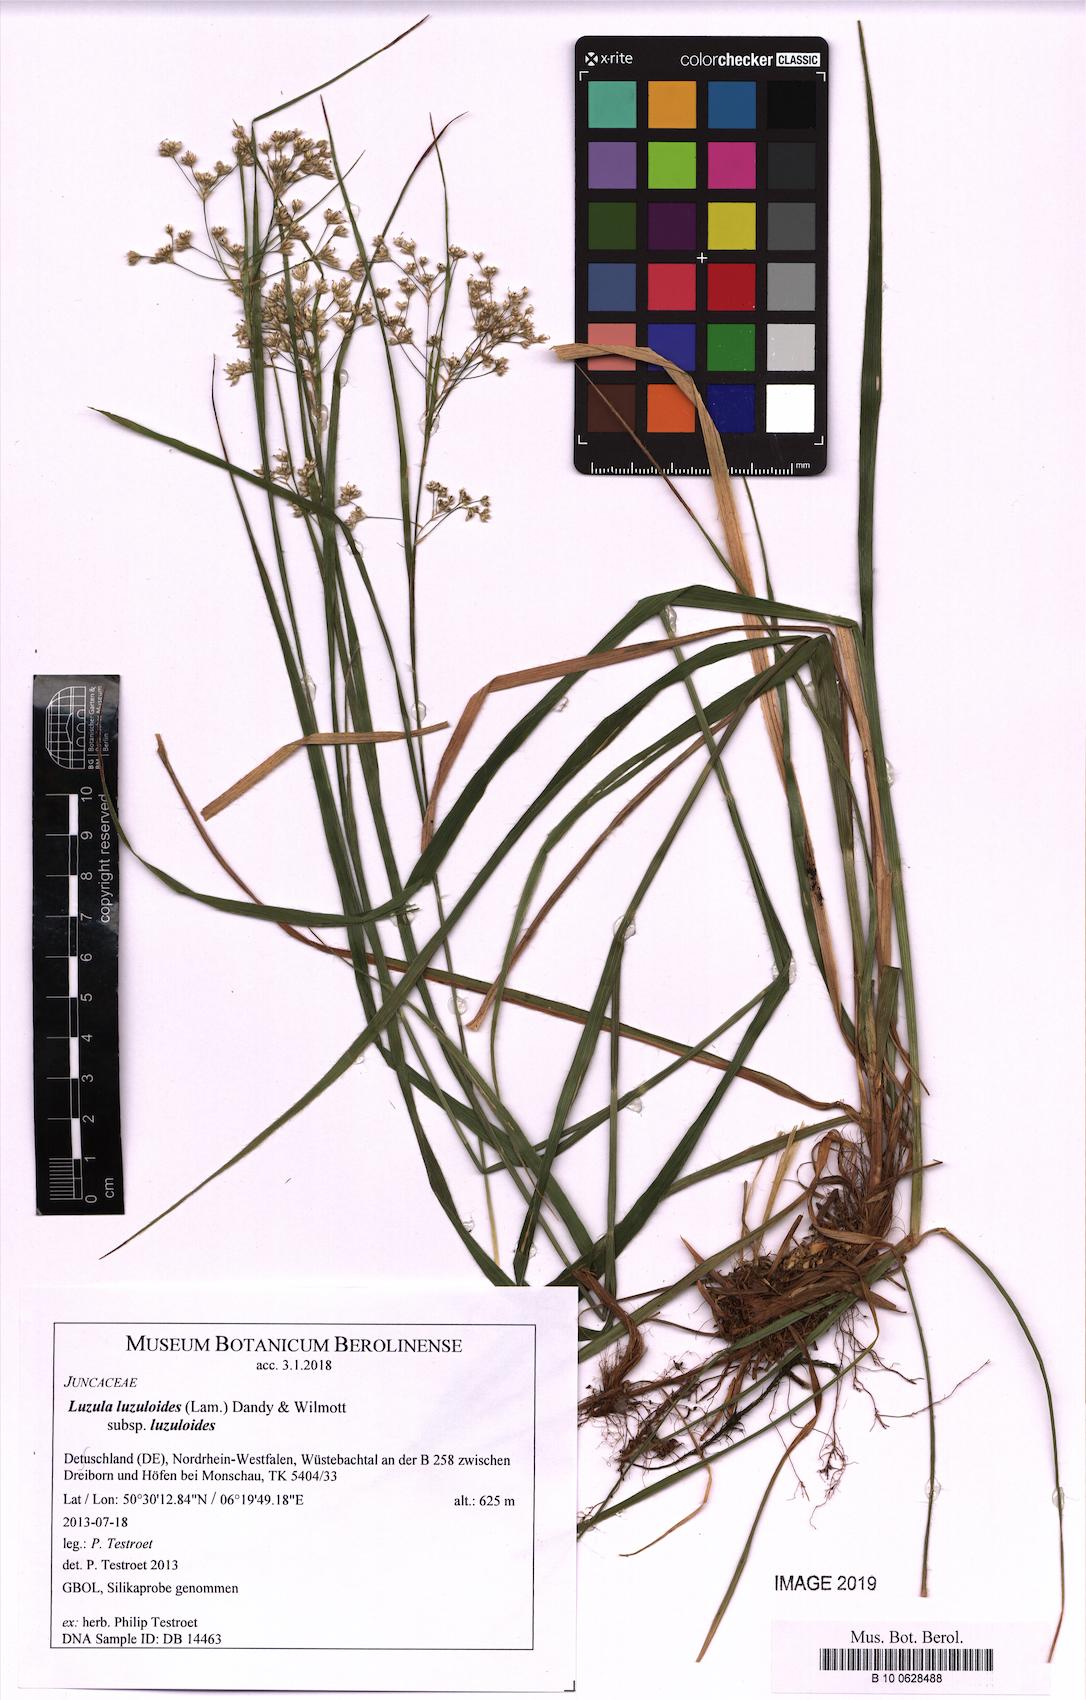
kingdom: Plantae
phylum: Tracheophyta
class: Liliopsida
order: Poales
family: Juncaceae
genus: Luzula
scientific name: Luzula luzuloides
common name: White wood-rush
